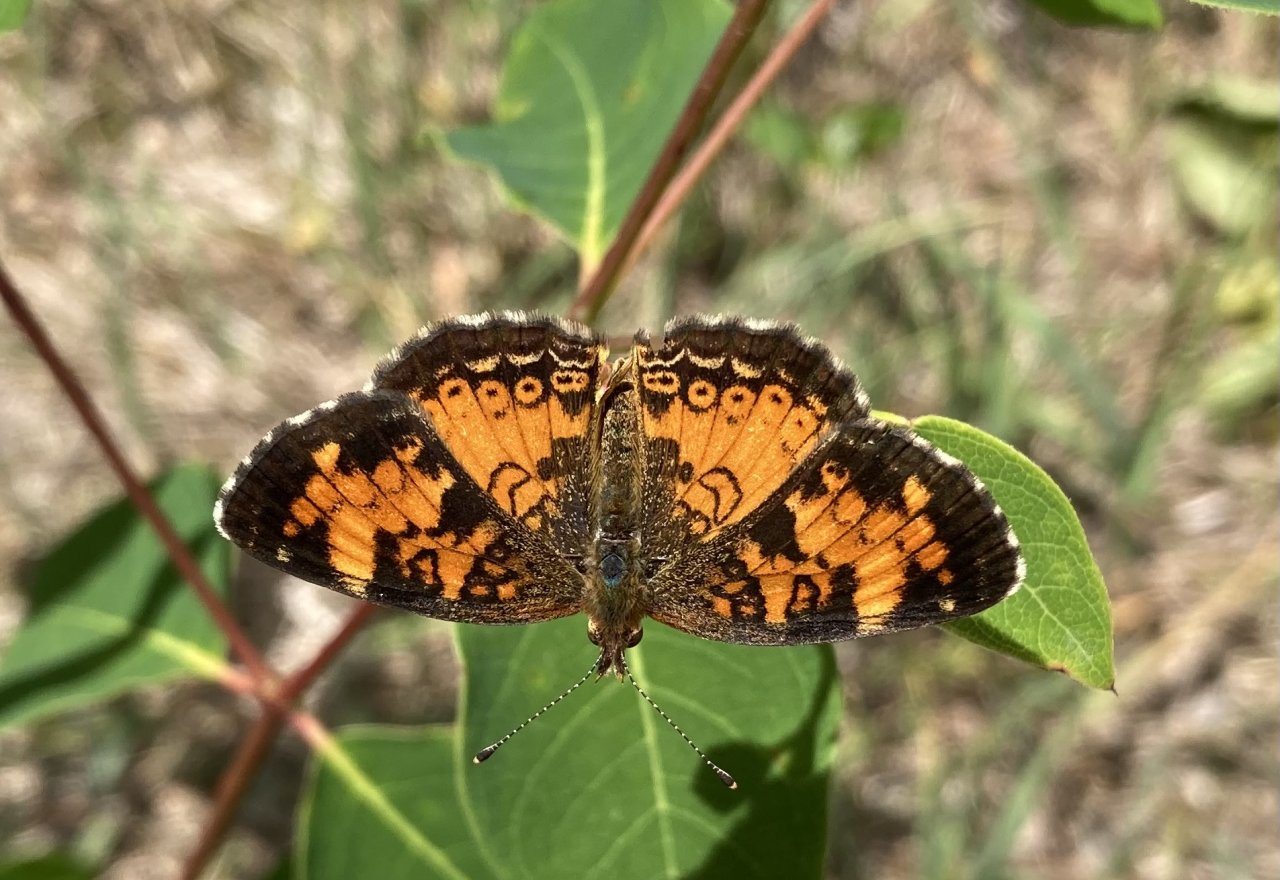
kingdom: Animalia
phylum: Arthropoda
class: Insecta
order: Lepidoptera
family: Nymphalidae
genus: Phyciodes
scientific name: Phyciodes tharos
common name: Northern Crescent
